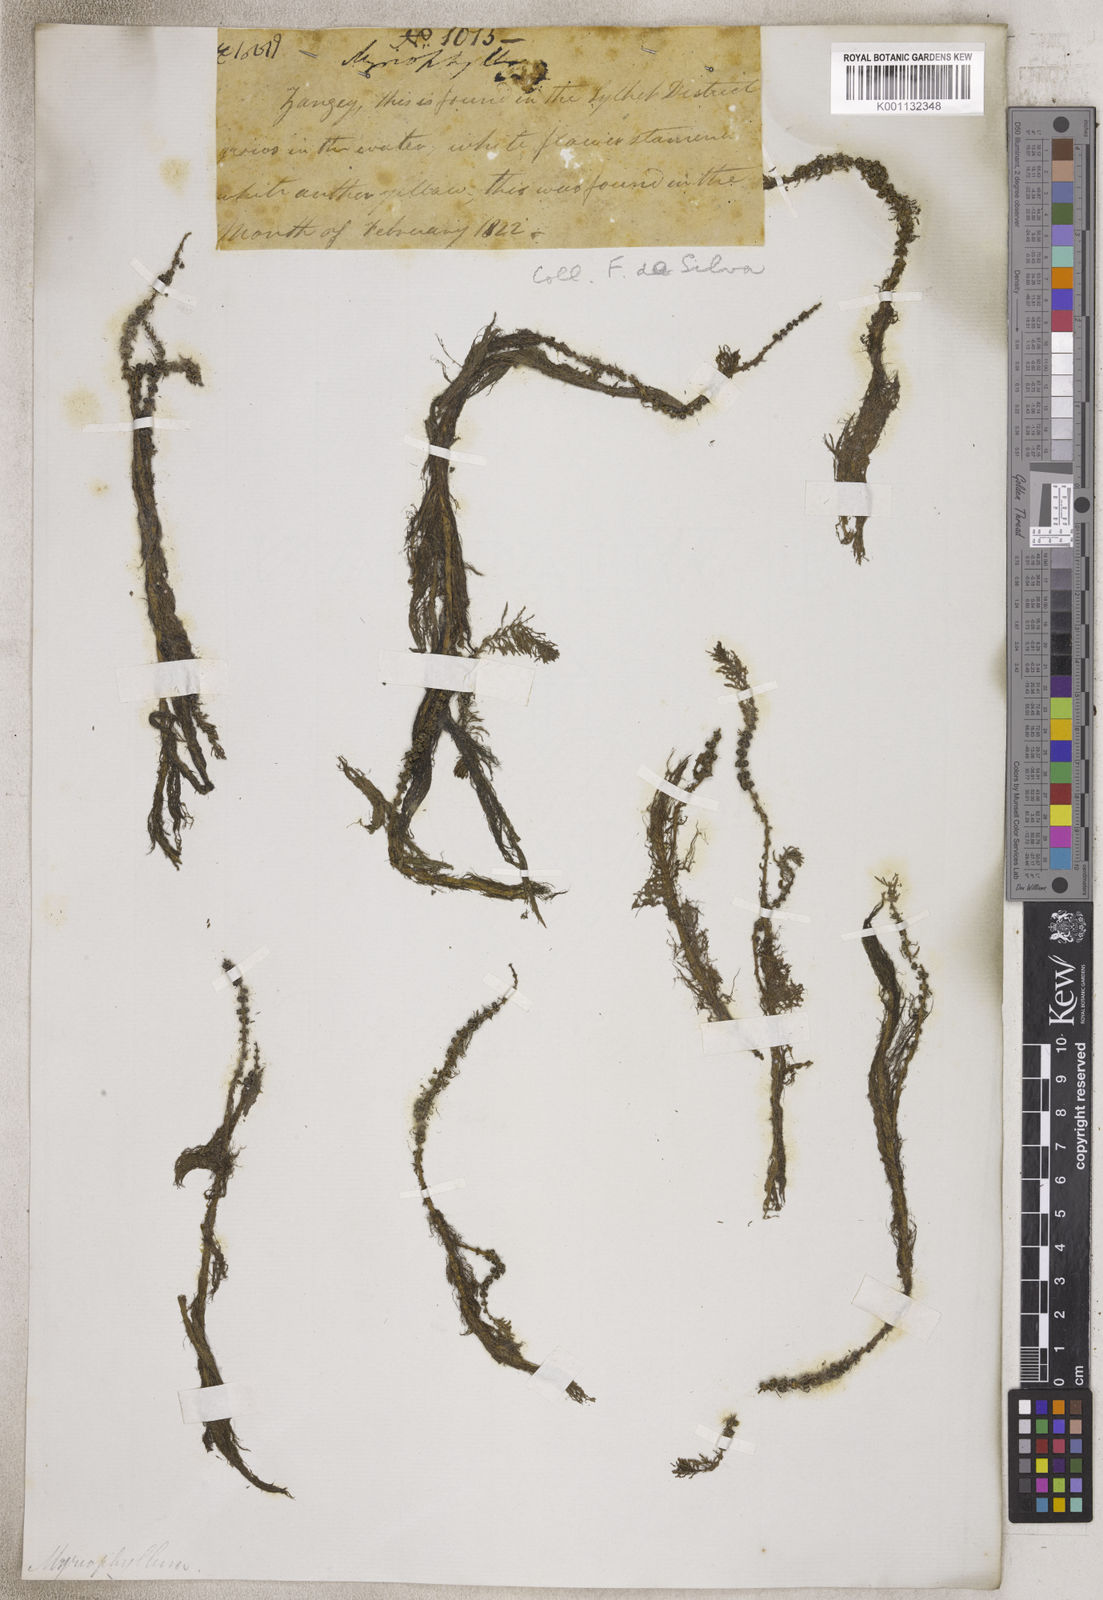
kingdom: Plantae
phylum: Tracheophyta
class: Magnoliopsida
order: Saxifragales
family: Haloragaceae
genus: Myriophyllum
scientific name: Myriophyllum
